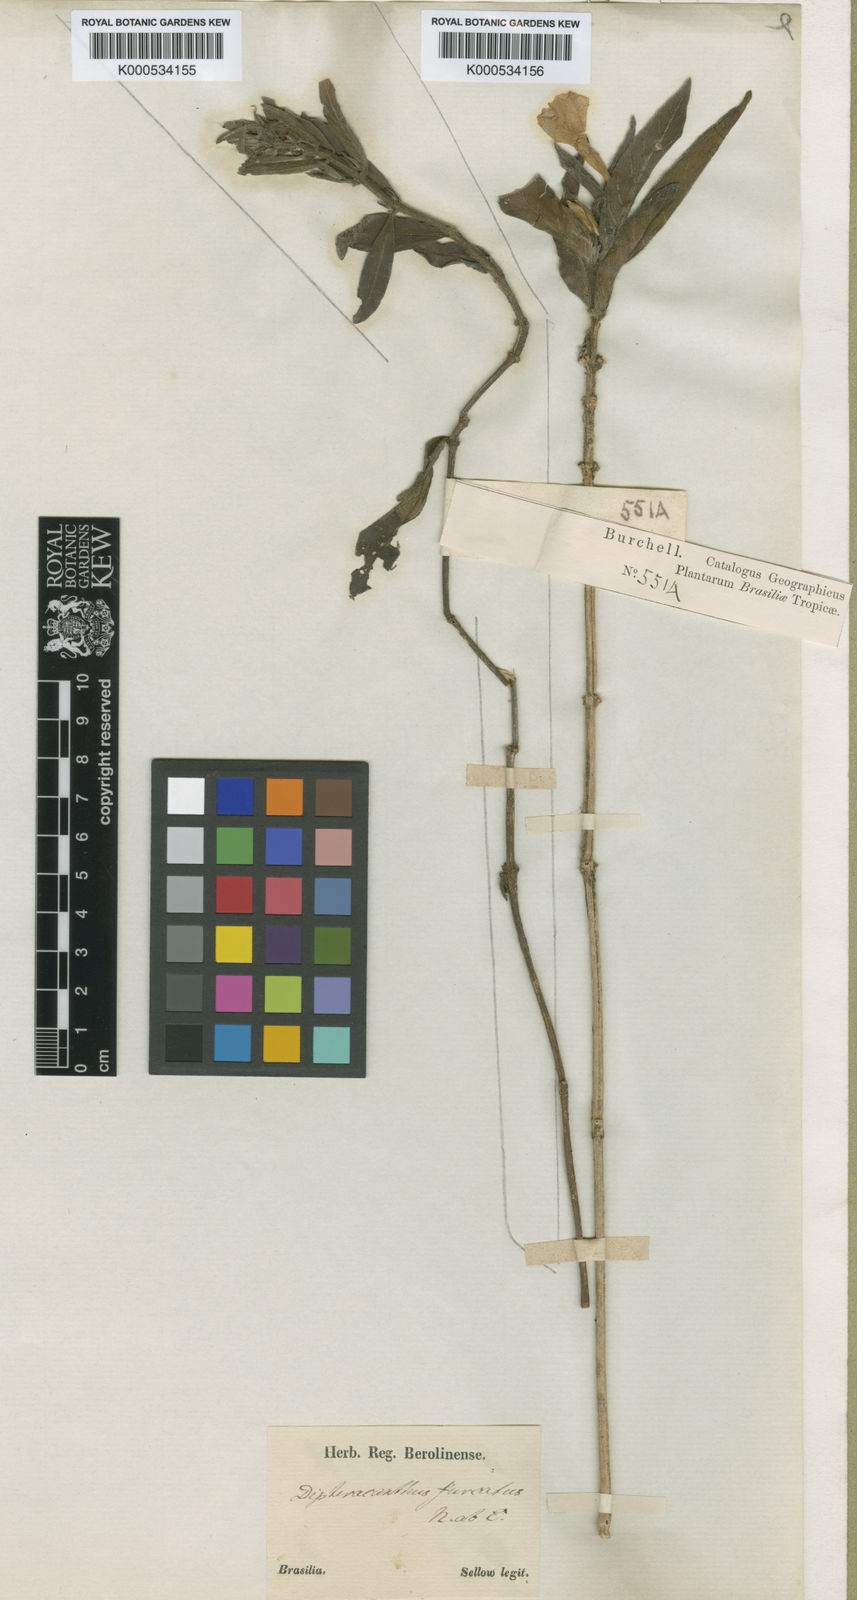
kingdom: Plantae
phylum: Tracheophyta
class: Magnoliopsida
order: Lamiales
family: Acanthaceae
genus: Ruellia
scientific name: Ruellia furcata
